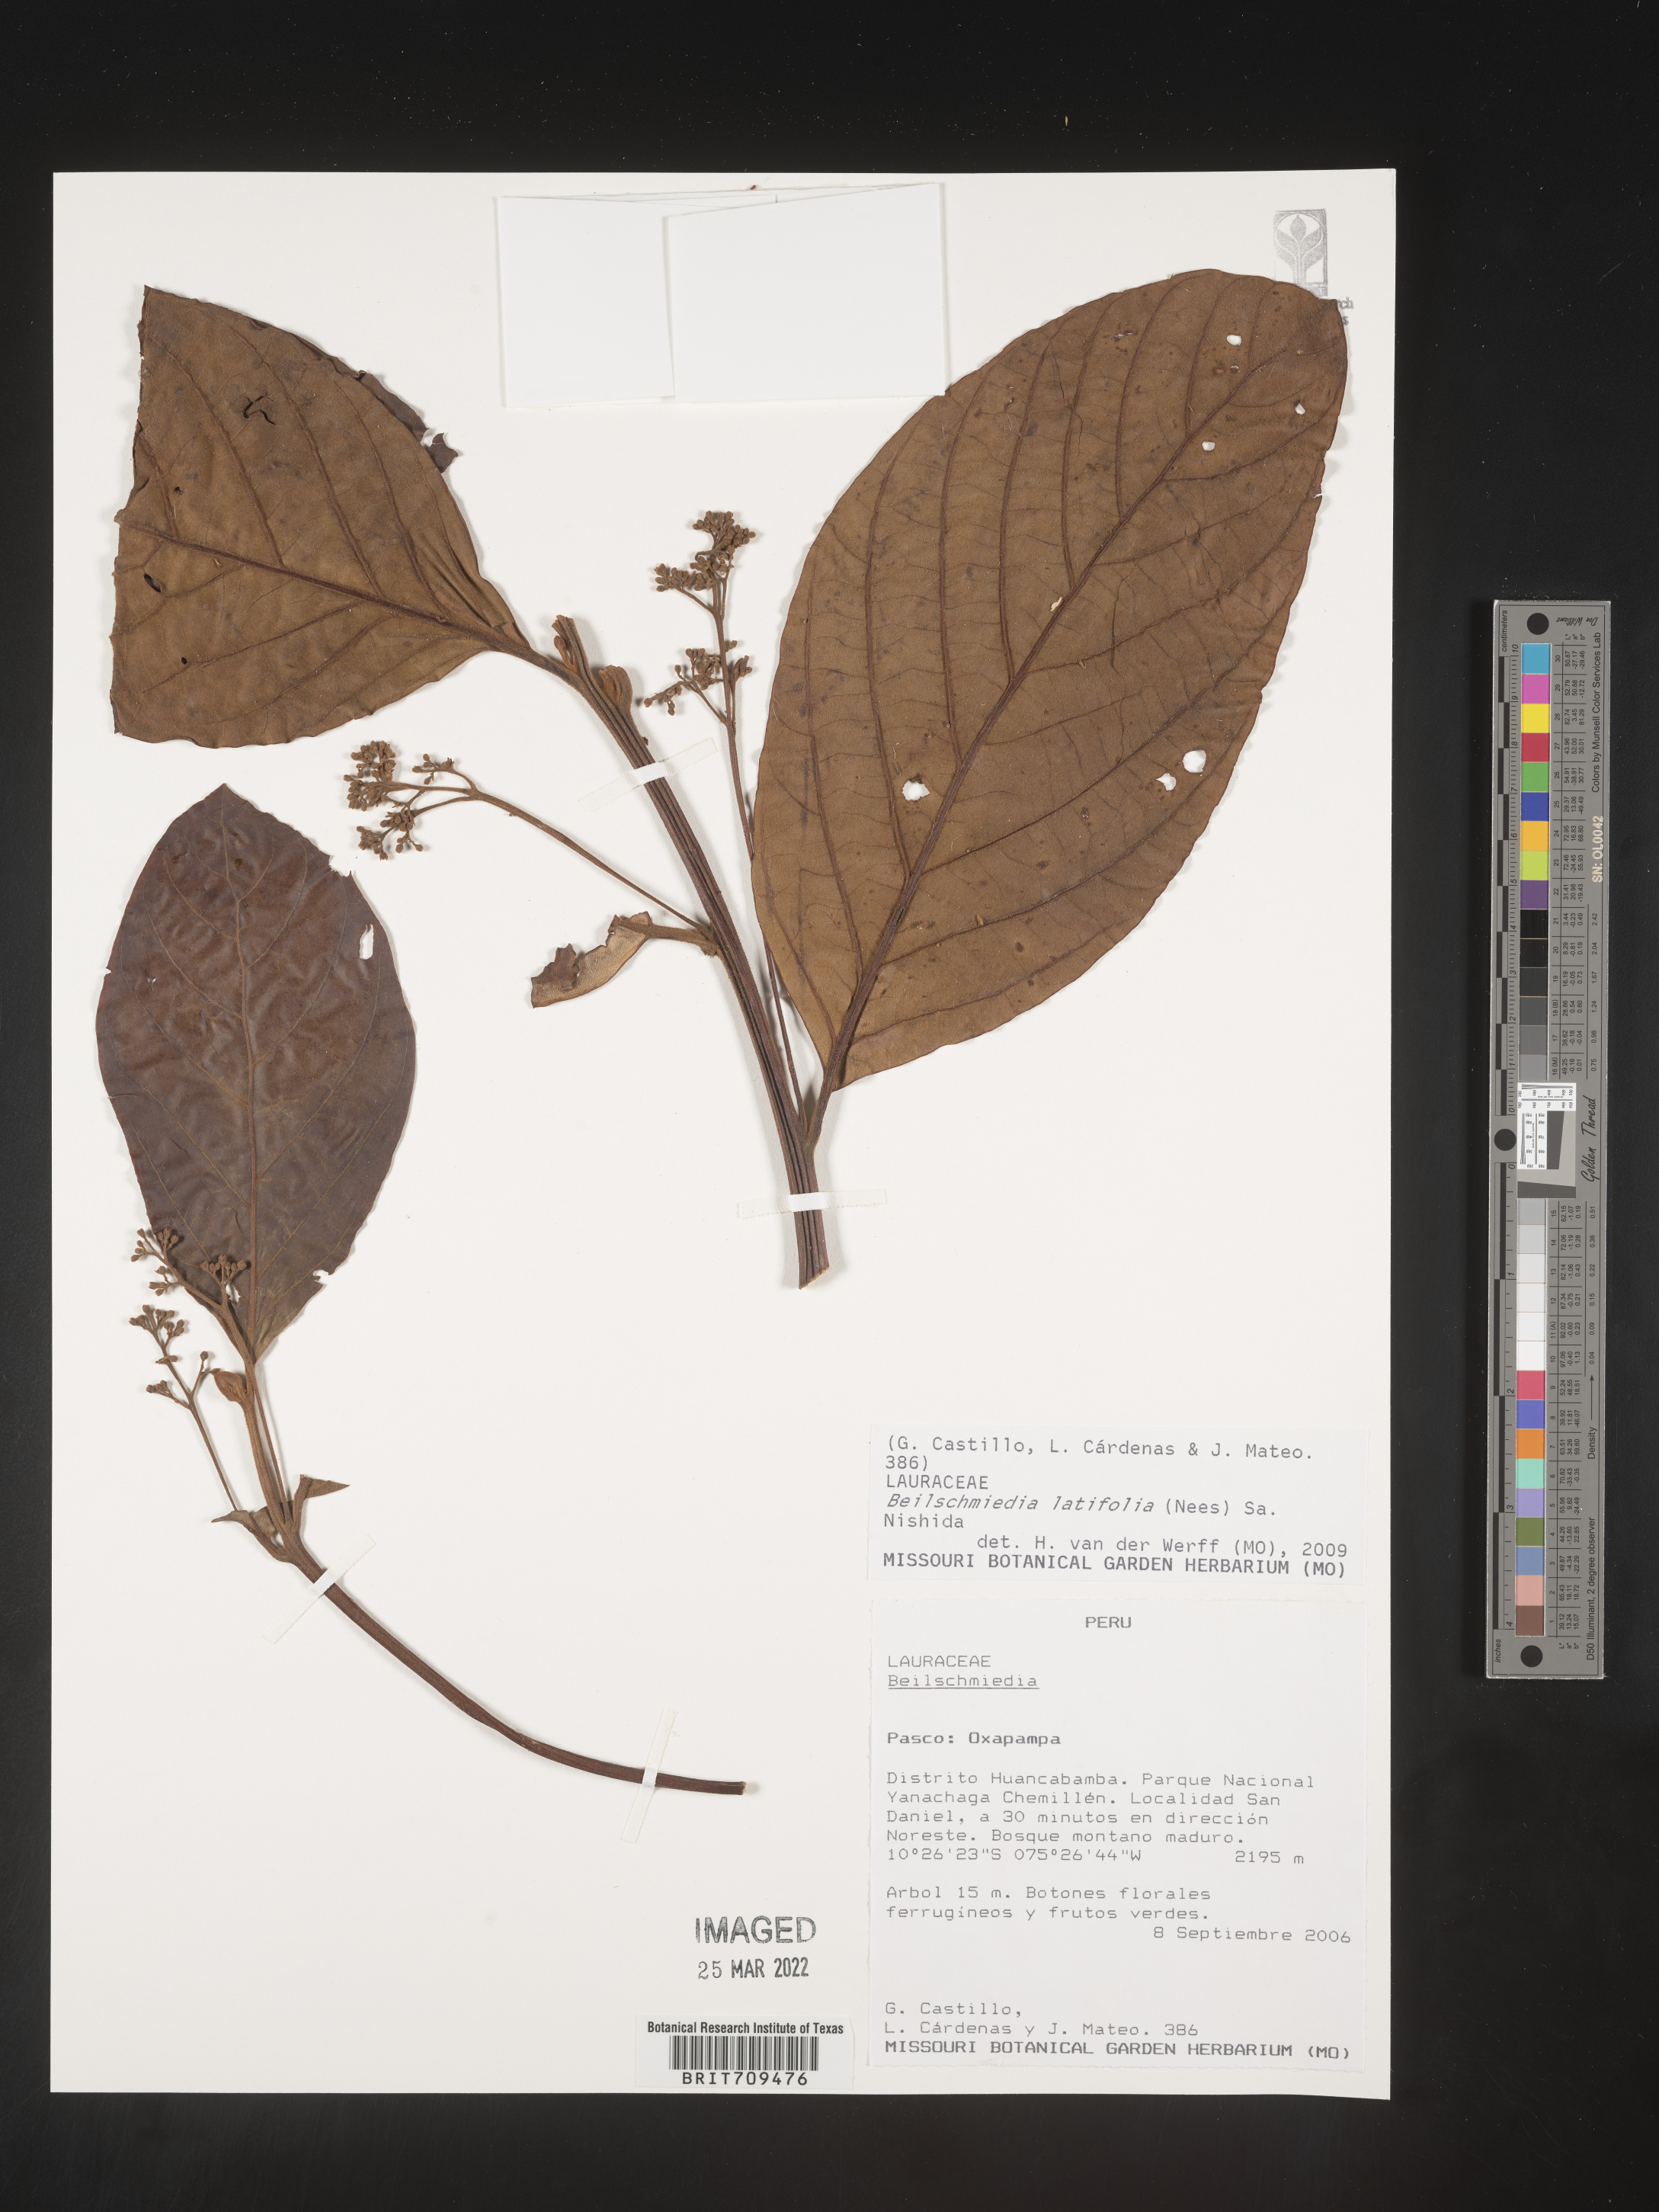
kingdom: Plantae
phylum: Tracheophyta
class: Magnoliopsida
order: Laurales
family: Lauraceae
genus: Beilschmiedia
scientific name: Beilschmiedia
